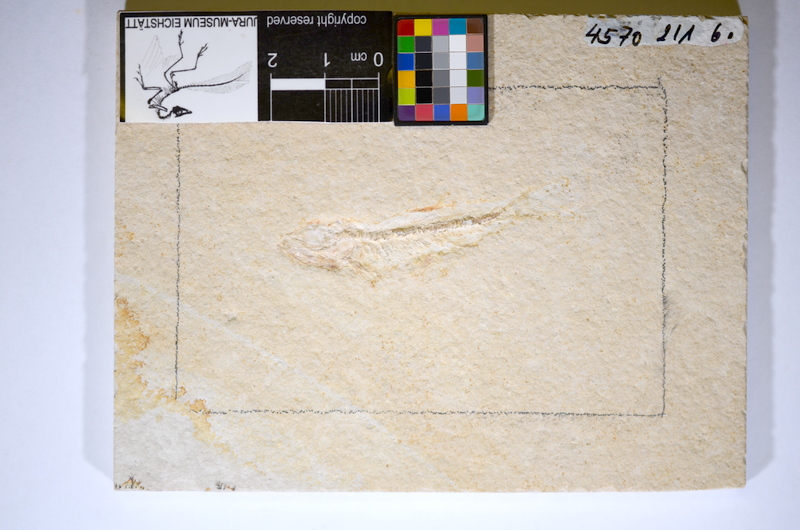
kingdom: Animalia
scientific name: Animalia
